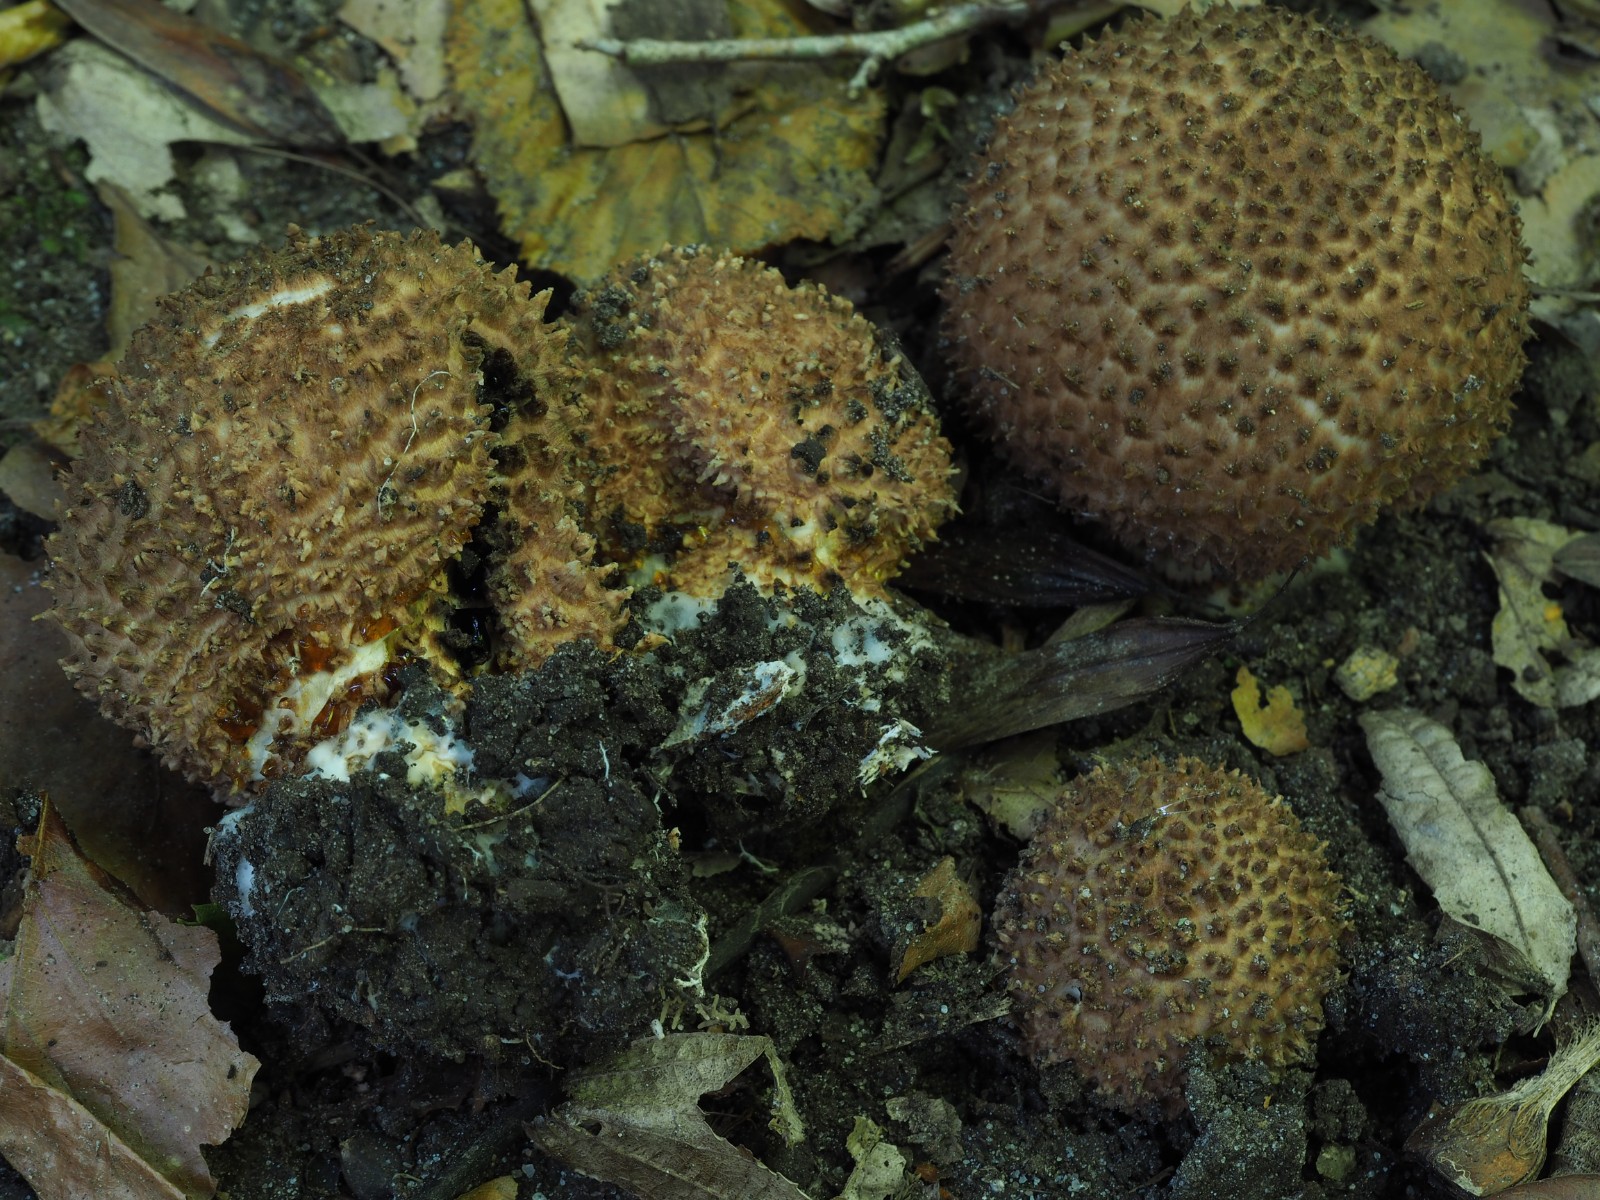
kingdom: Fungi
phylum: Basidiomycota
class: Agaricomycetes
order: Agaricales
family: Agaricaceae
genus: Echinoderma
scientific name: Echinoderma asperum
